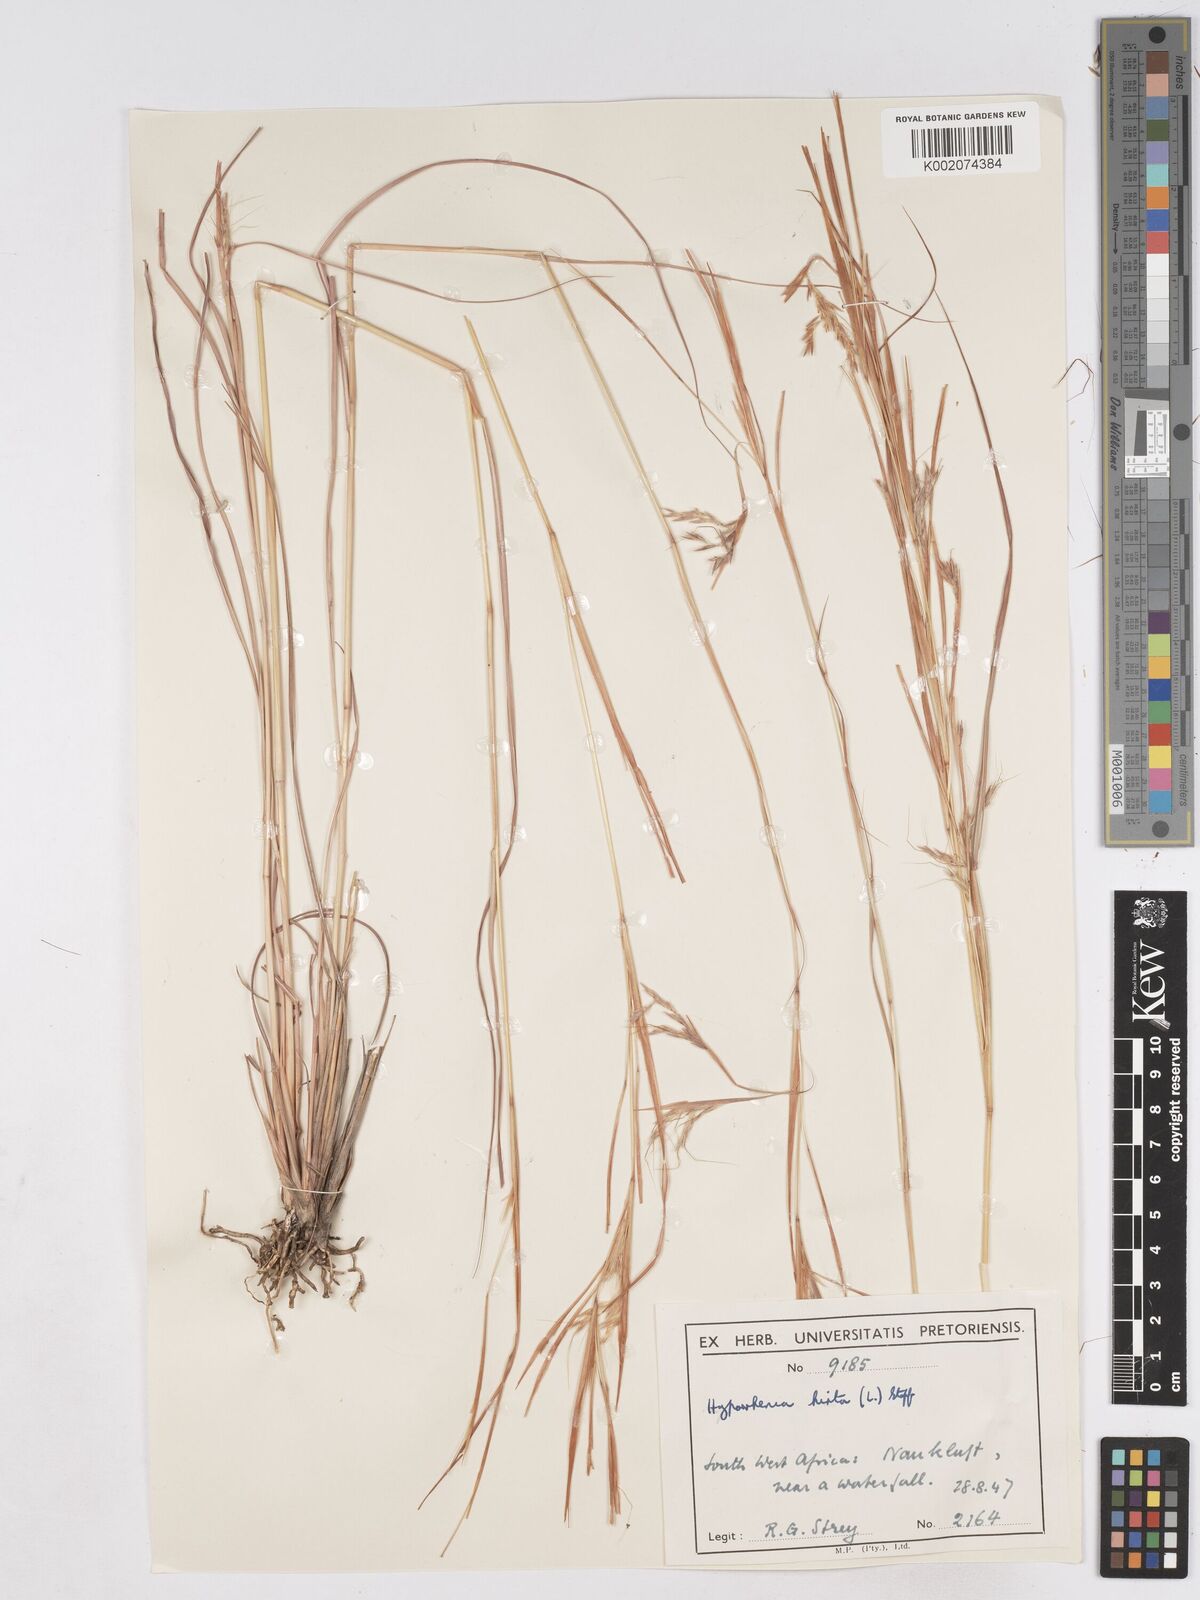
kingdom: Plantae
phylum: Tracheophyta
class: Liliopsida
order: Poales
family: Poaceae
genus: Hyparrhenia
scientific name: Hyparrhenia hirta
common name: Thatching grass
